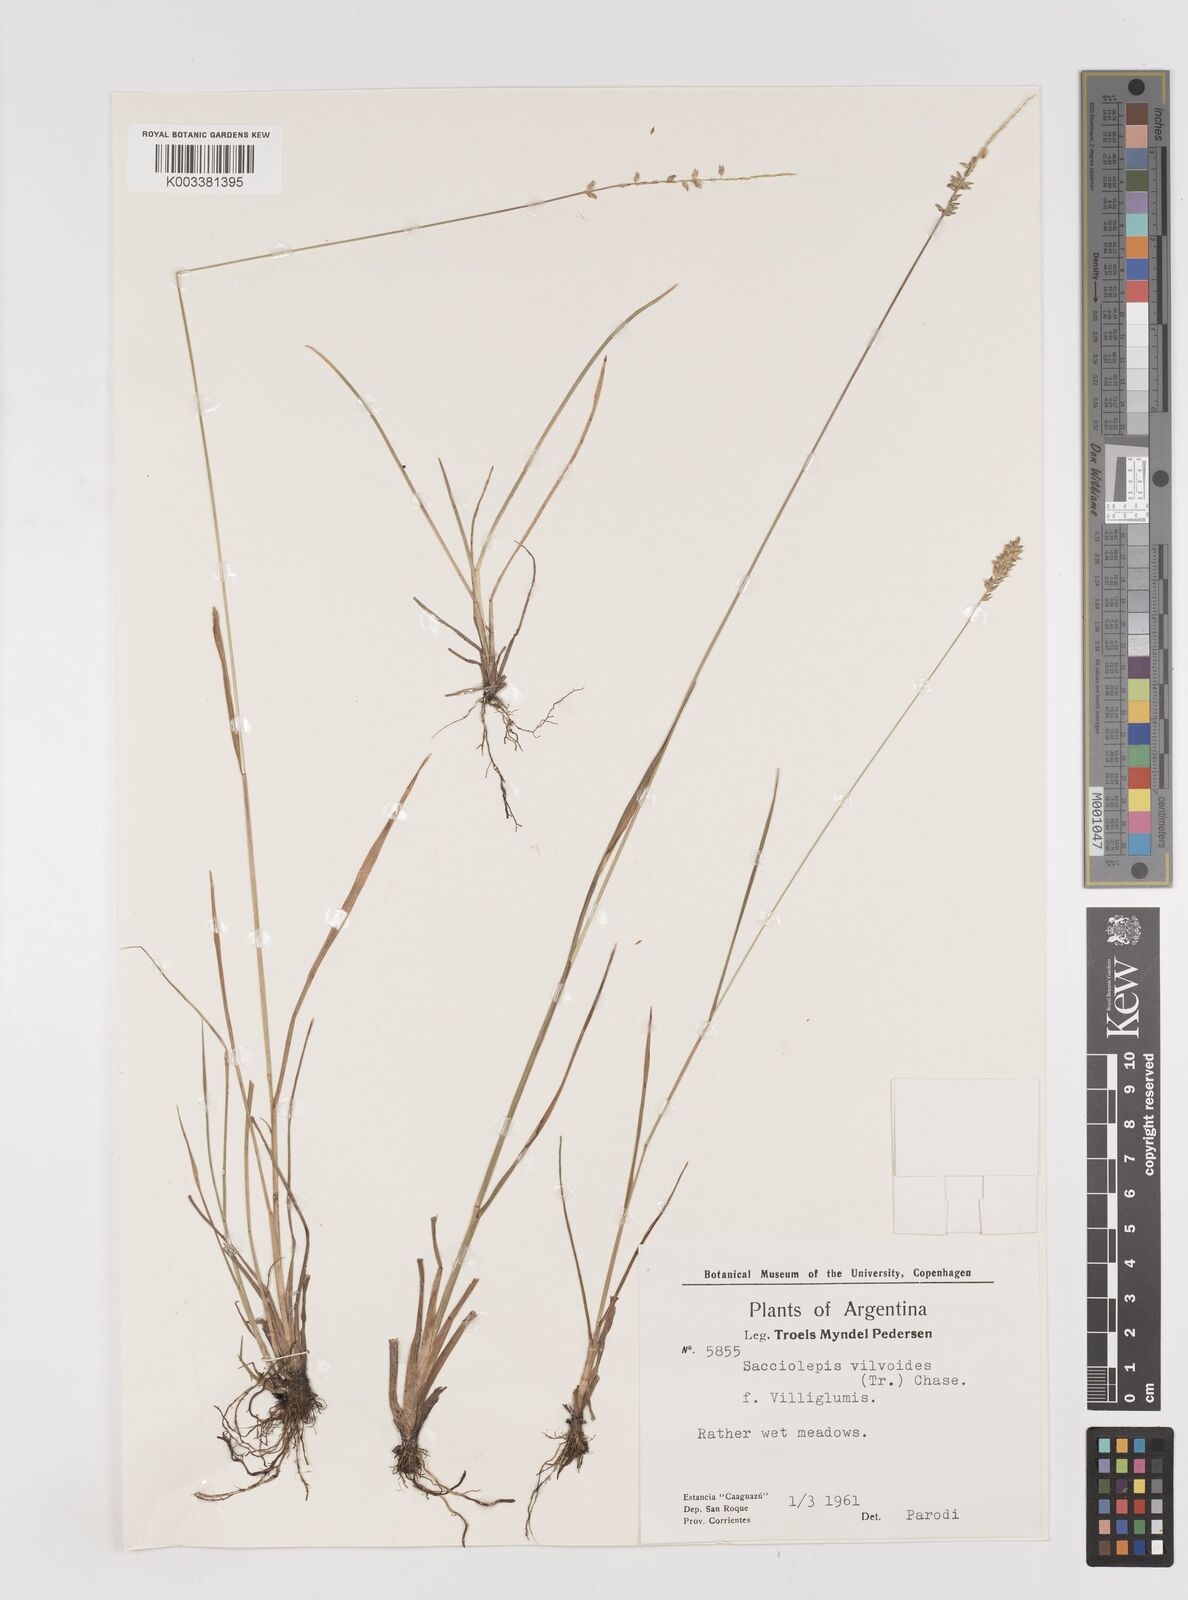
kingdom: Plantae
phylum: Tracheophyta
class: Liliopsida
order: Poales
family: Poaceae
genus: Sacciolepis
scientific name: Sacciolepis vilvoides
